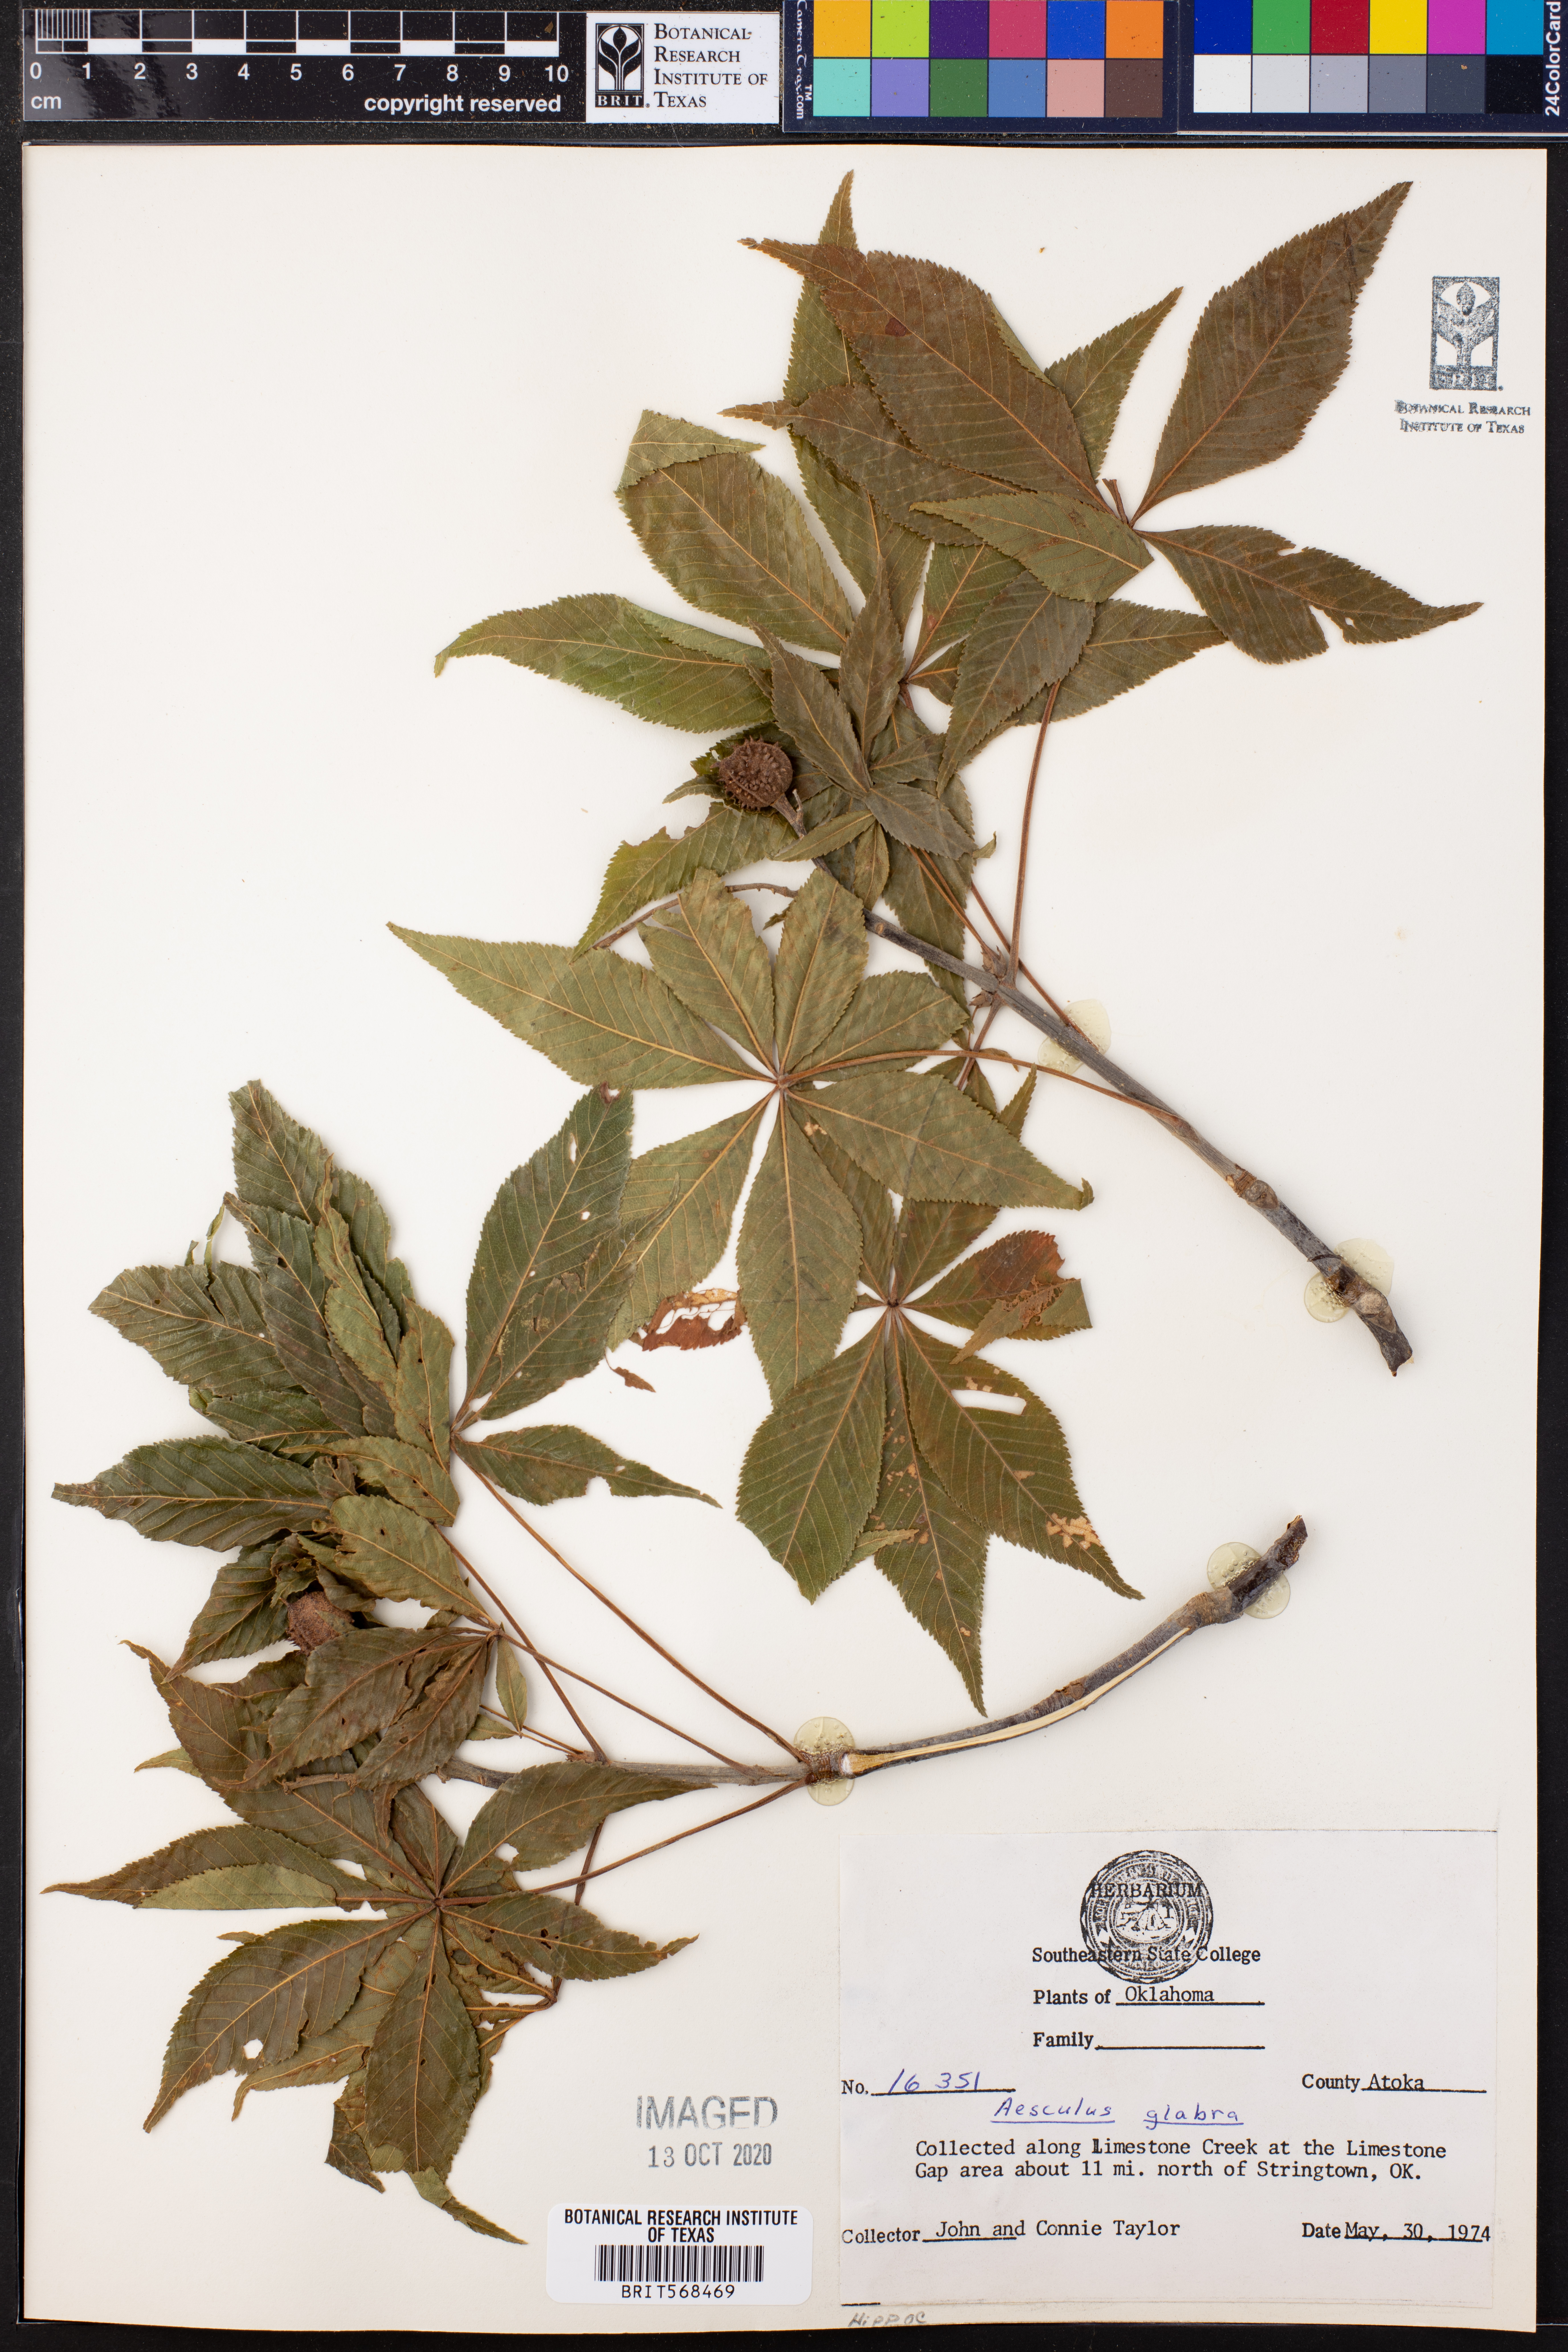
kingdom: Plantae
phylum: Tracheophyta
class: Magnoliopsida
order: Sapindales
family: Sapindaceae
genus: Aesculus
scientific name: Aesculus glabra
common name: Ohio buckeye
